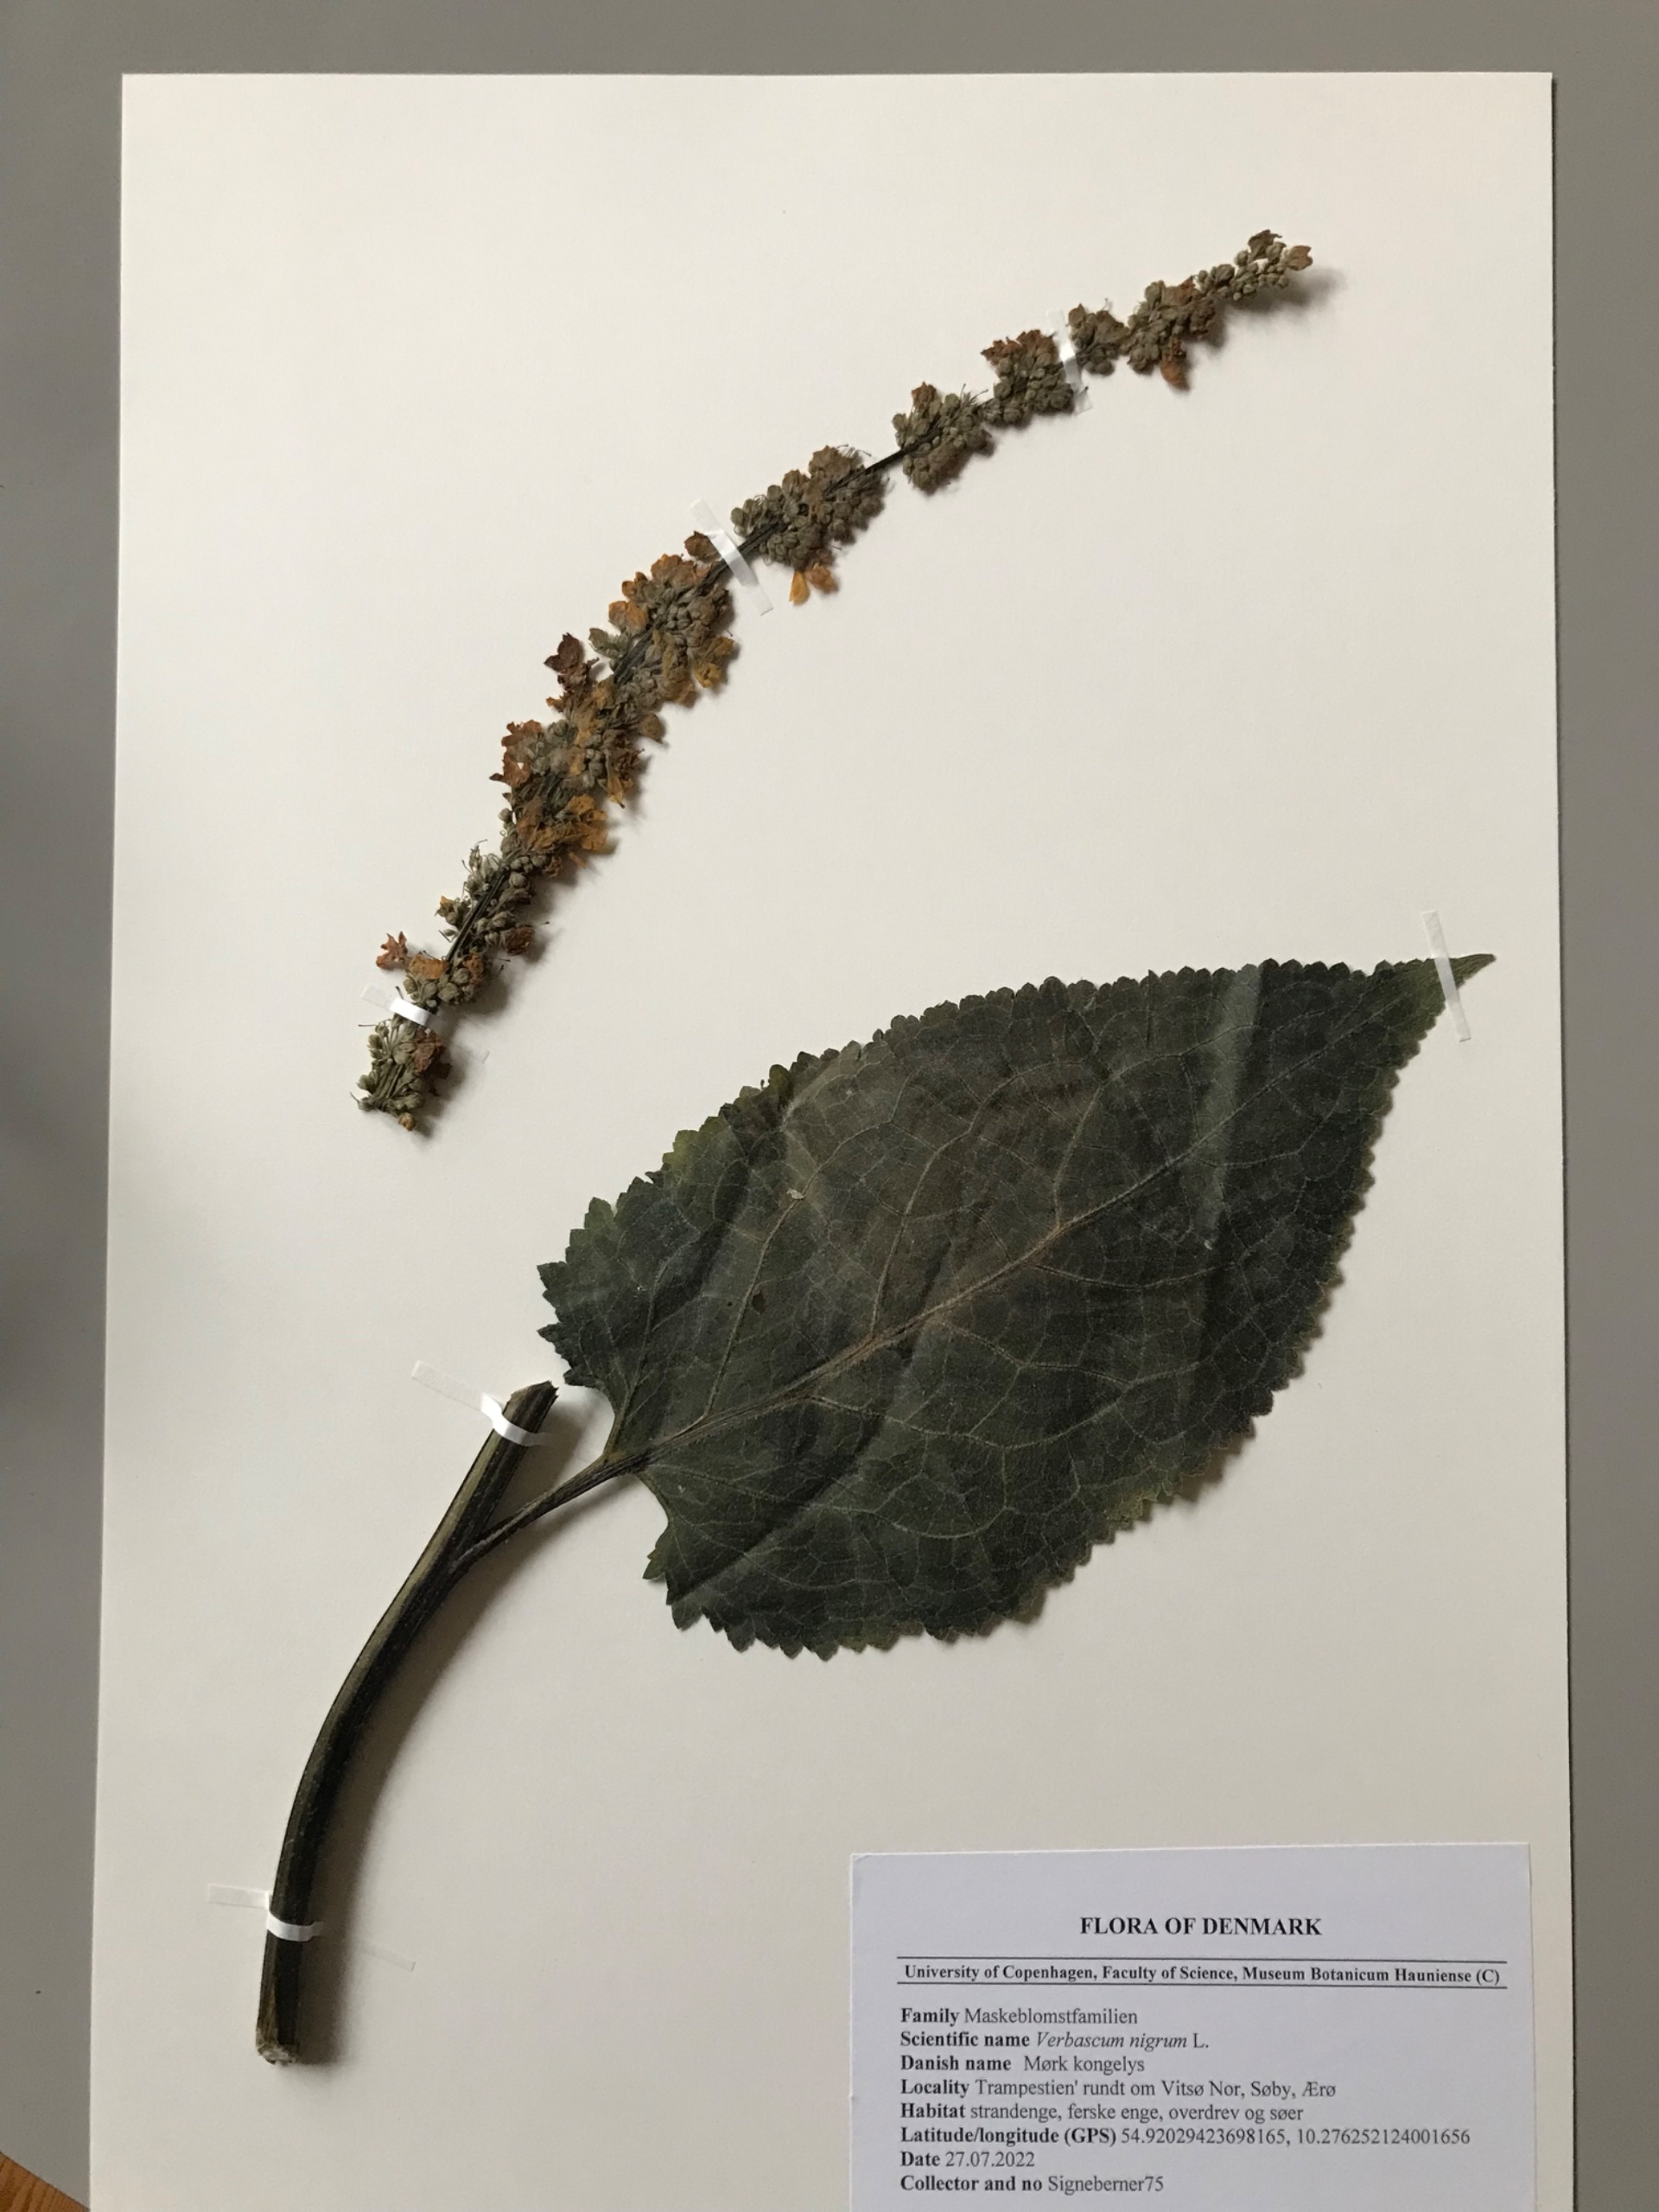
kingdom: Plantae
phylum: Tracheophyta
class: Magnoliopsida
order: Lamiales
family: Scrophulariaceae
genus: Verbascum
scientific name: Verbascum nigrum
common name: Mørk kongelys
